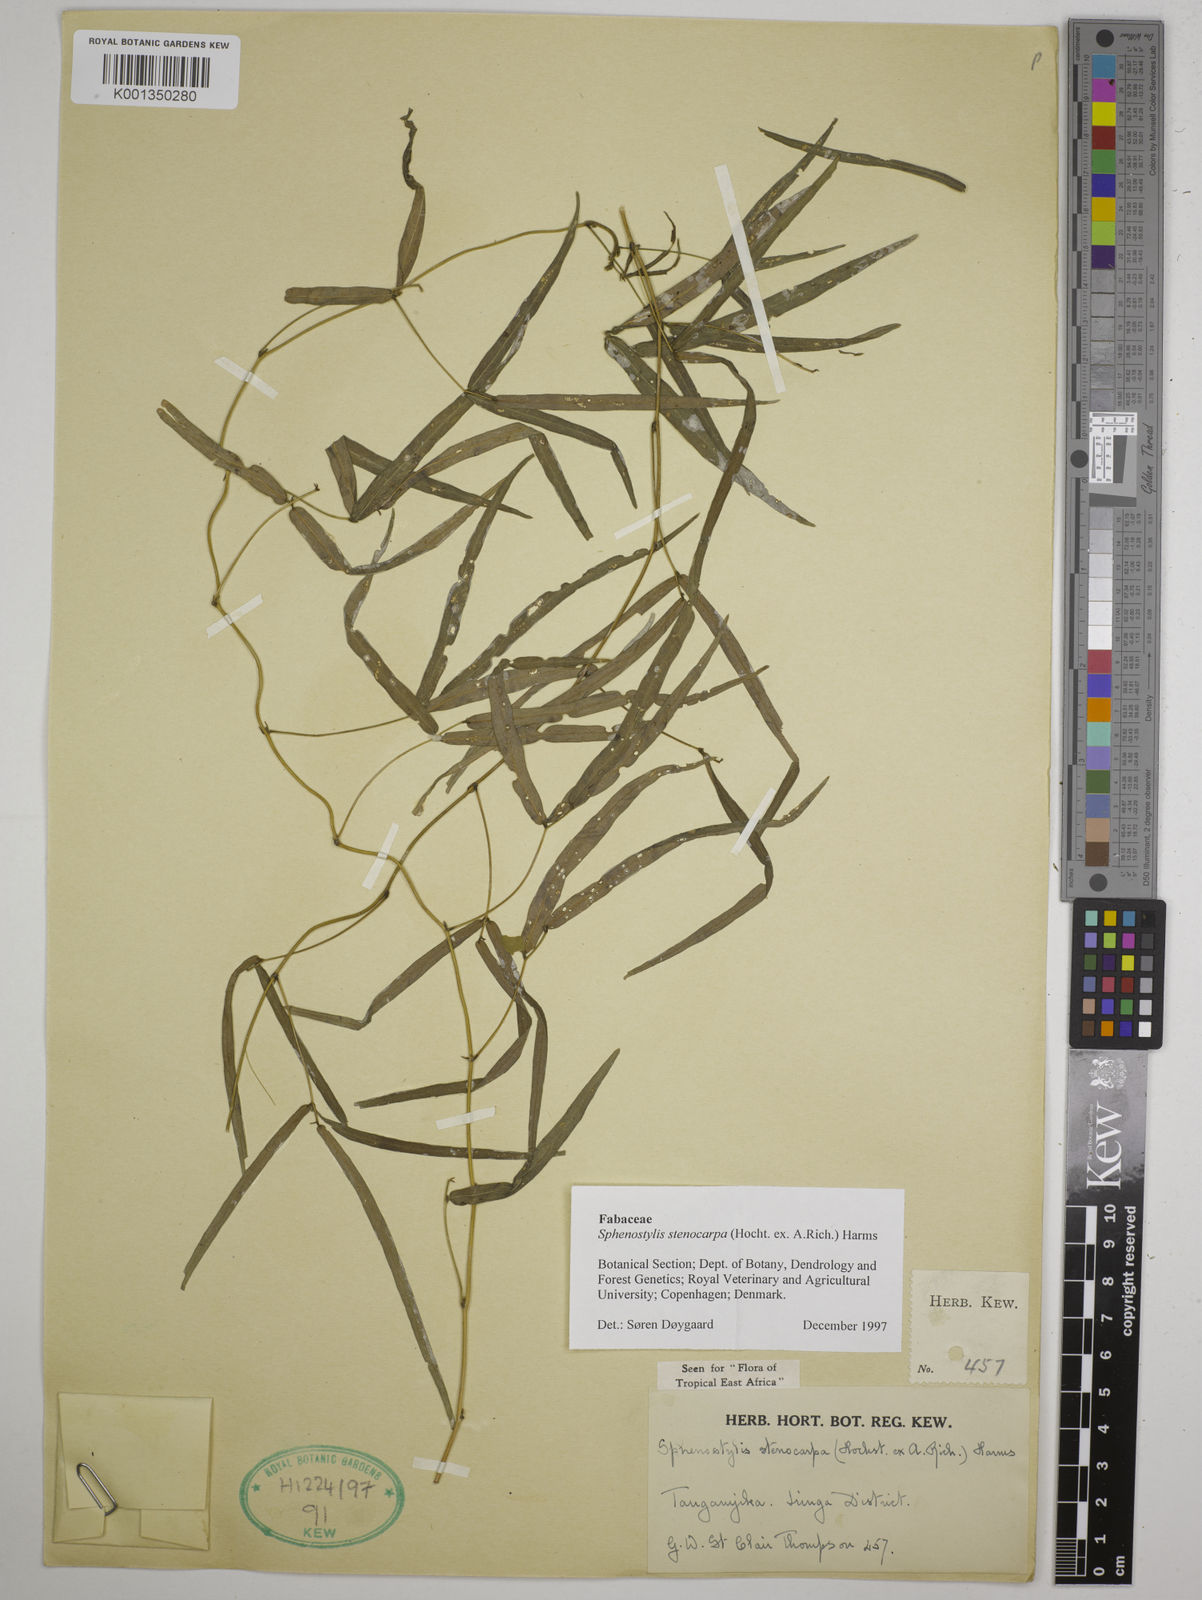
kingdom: Plantae
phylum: Tracheophyta
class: Magnoliopsida
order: Fabales
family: Fabaceae
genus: Sphenostylis
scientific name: Sphenostylis stenocarpa
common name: Yam-pea
